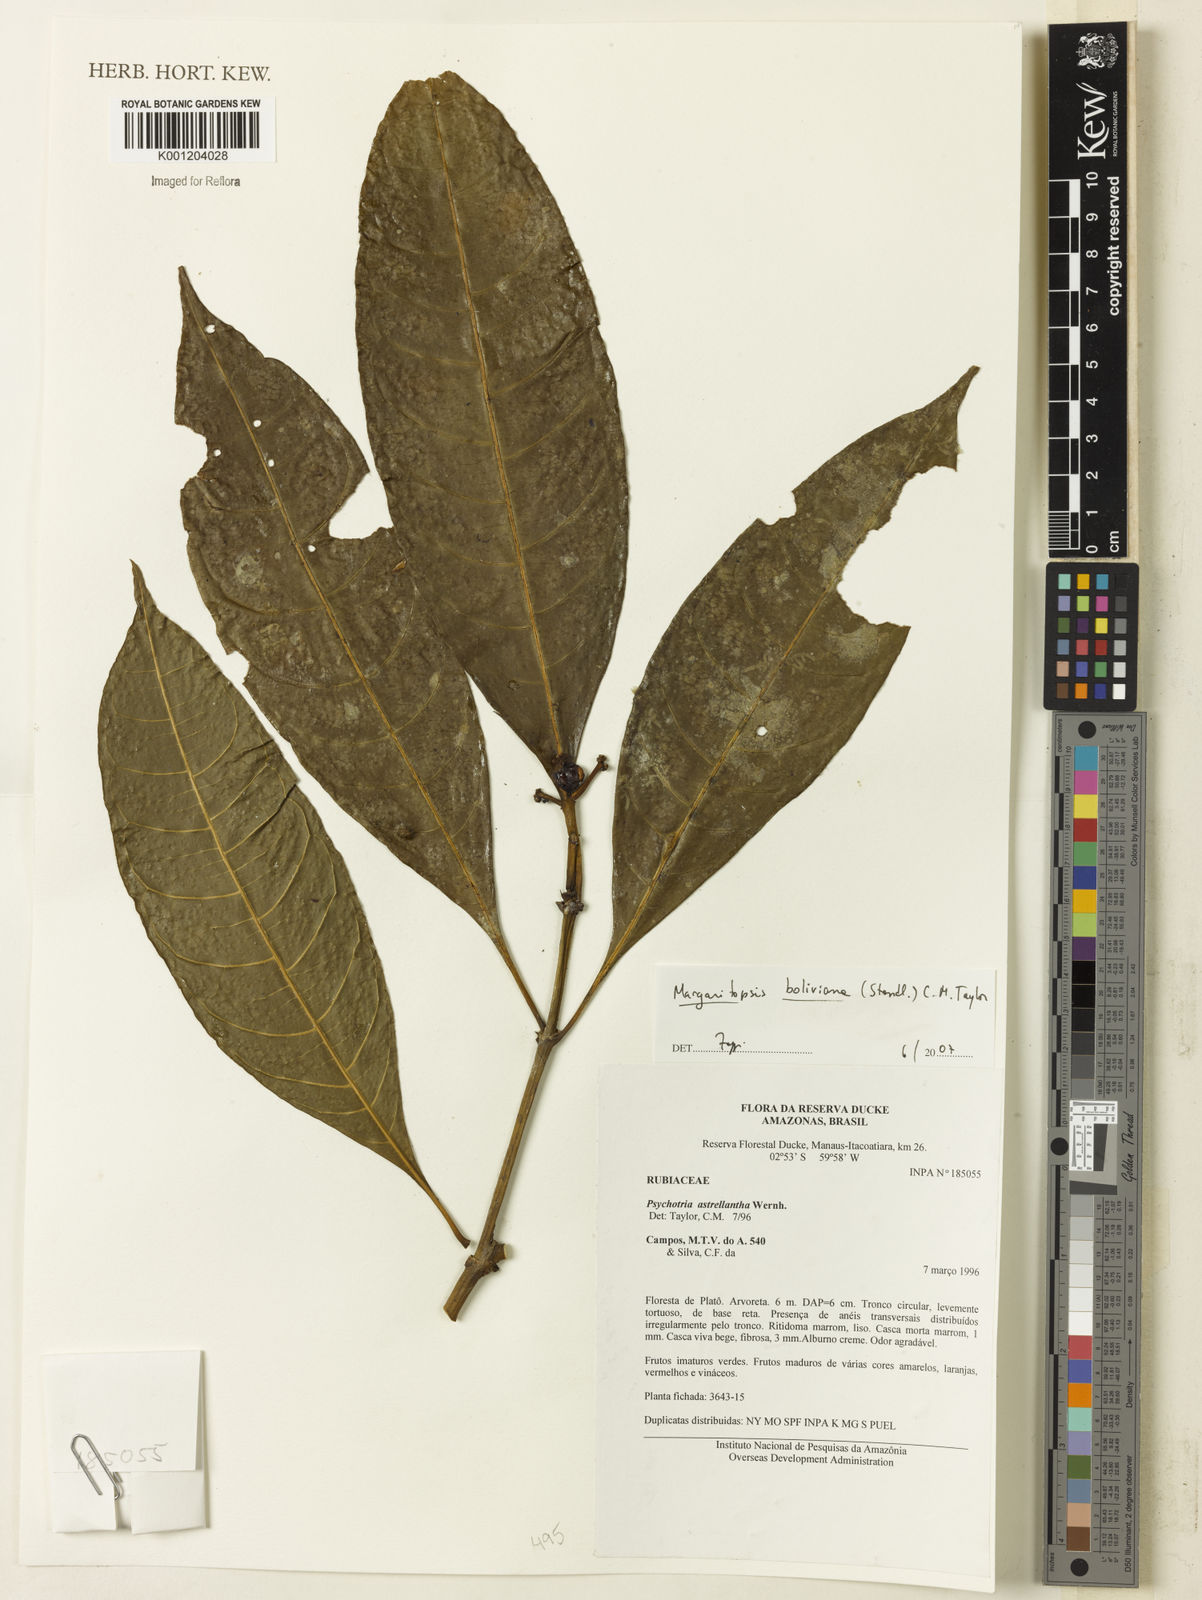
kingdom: Plantae
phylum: Tracheophyta
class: Magnoliopsida
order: Gentianales
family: Rubiaceae
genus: Eumachia
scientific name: Eumachia boliviana
